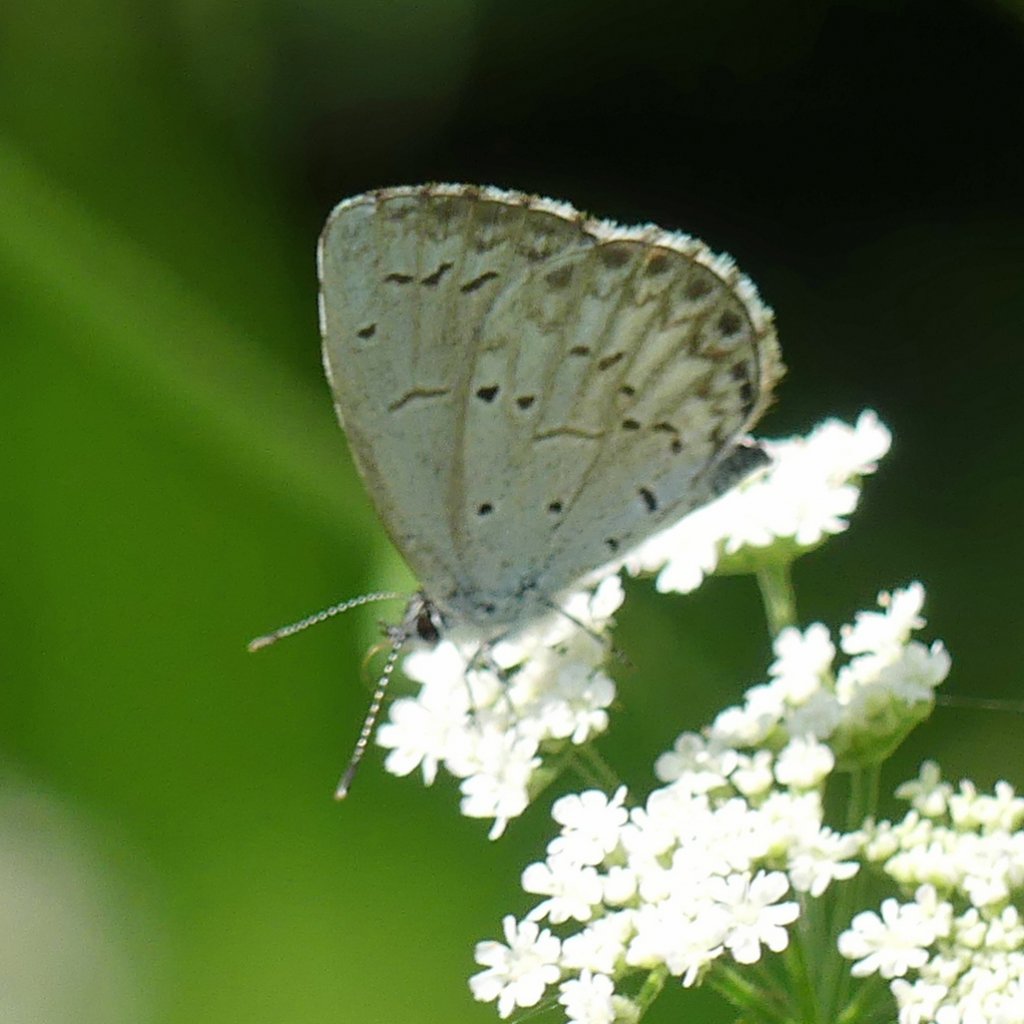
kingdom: Animalia
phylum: Arthropoda
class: Insecta
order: Lepidoptera
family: Lycaenidae
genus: Celastrina
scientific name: Celastrina
